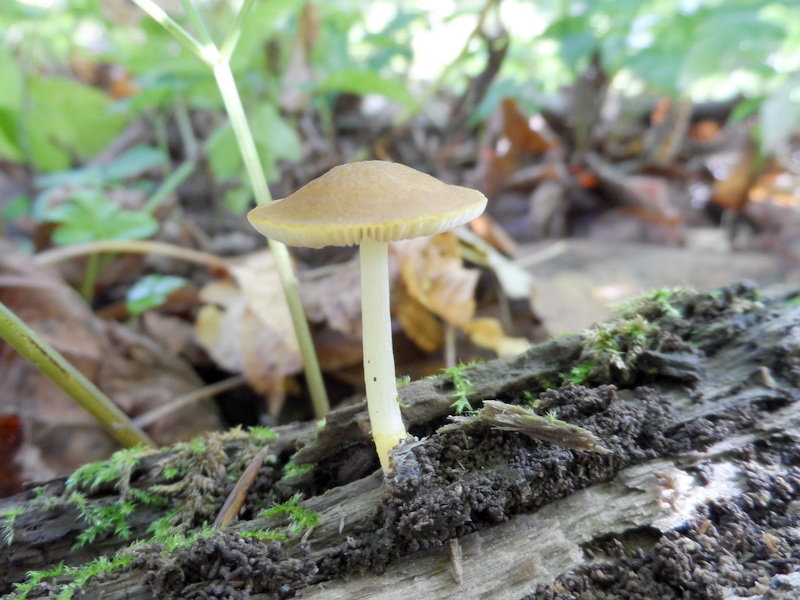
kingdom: Fungi
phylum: Basidiomycota
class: Agaricomycetes
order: Agaricales
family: Pluteaceae
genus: Pluteus
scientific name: Pluteus chrysophaeus
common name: Yellow shield
